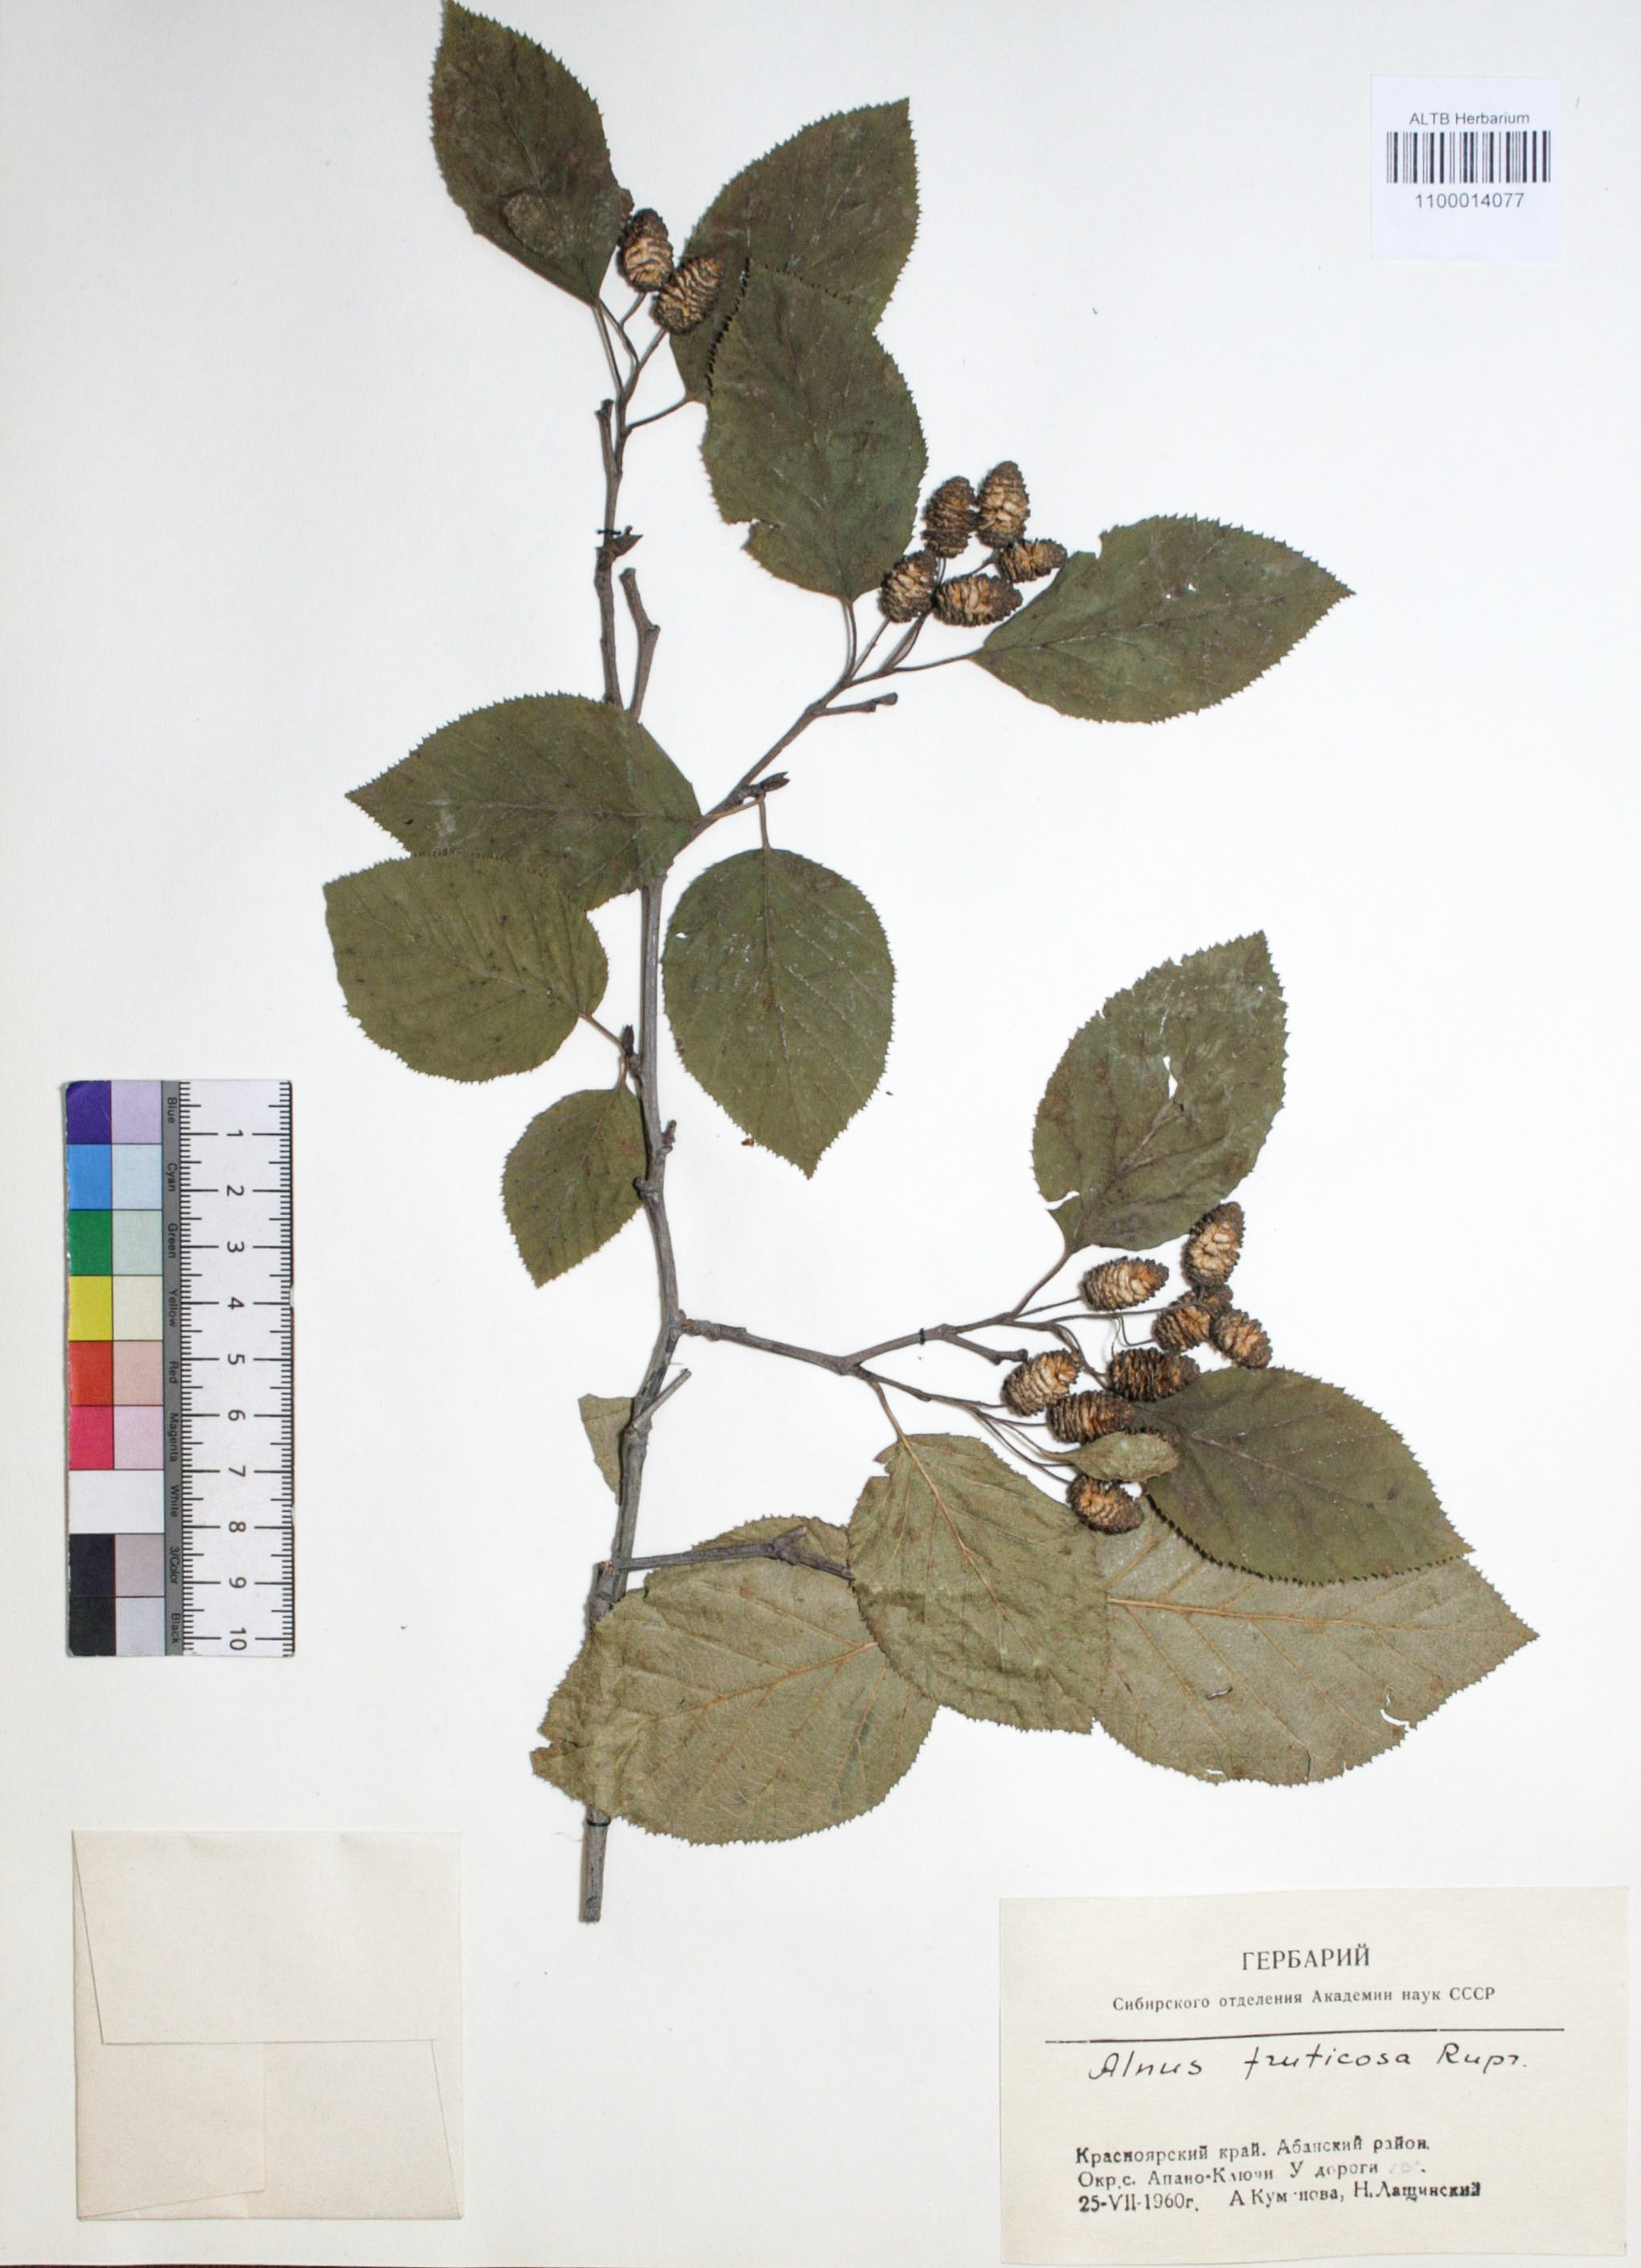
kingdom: Plantae
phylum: Tracheophyta
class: Magnoliopsida
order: Fagales
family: Betulaceae
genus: Alnus
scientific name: Alnus alnobetula
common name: Green alder
